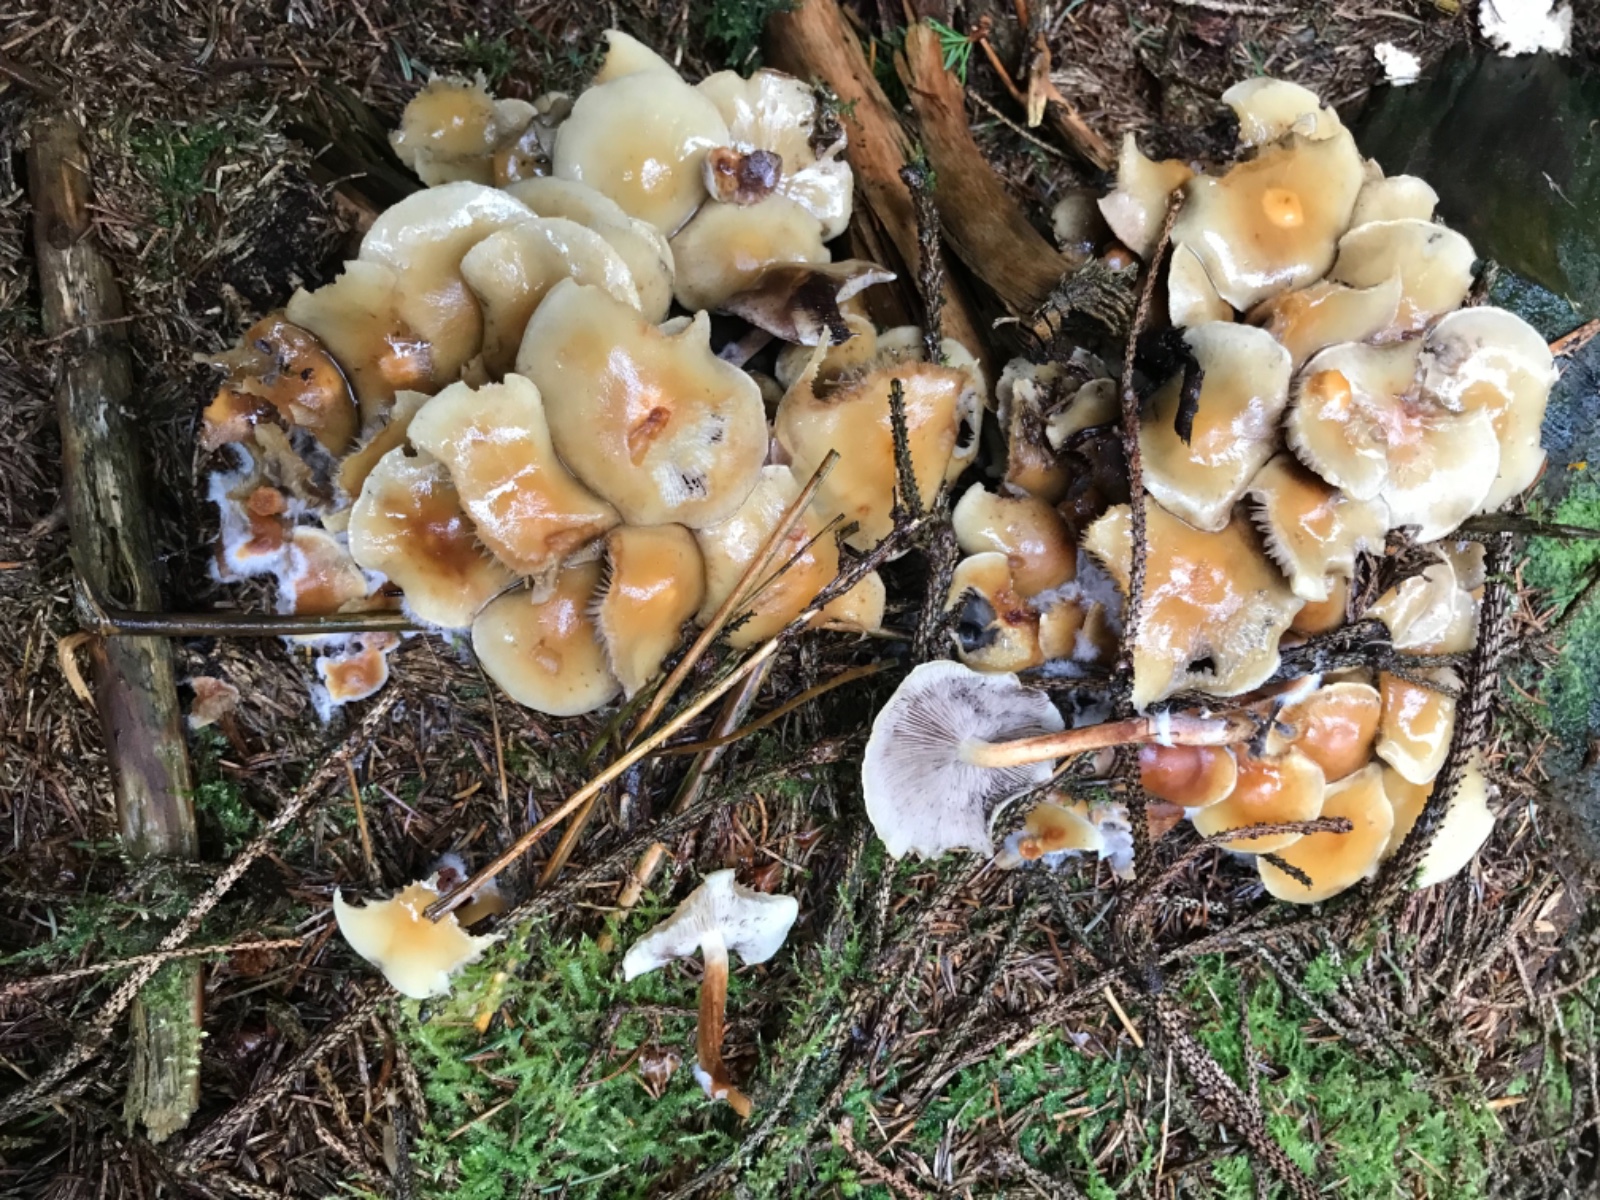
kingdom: Fungi
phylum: Basidiomycota
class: Agaricomycetes
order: Agaricales
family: Strophariaceae
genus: Hypholoma
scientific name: Hypholoma capnoides
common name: gran-svovlhat
